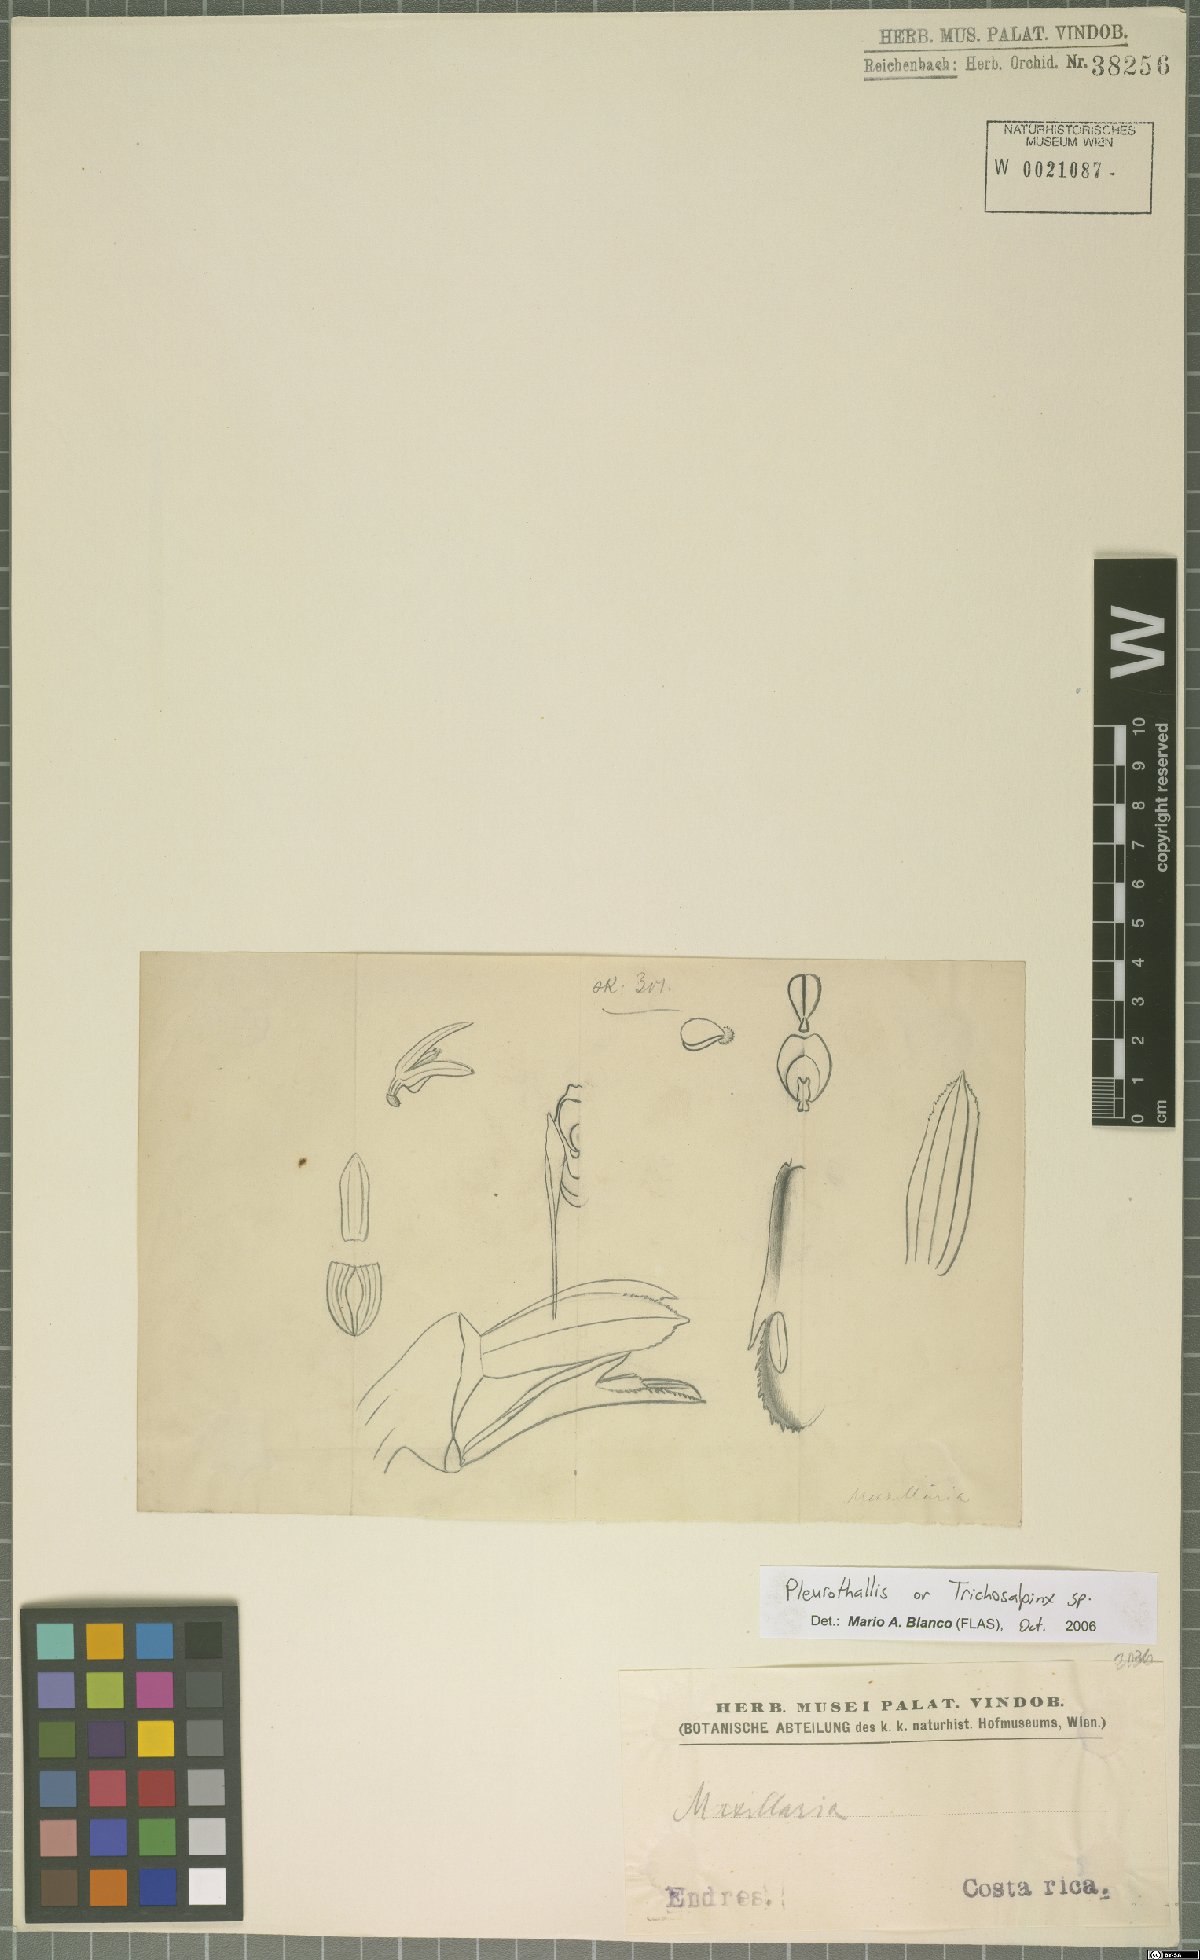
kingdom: Plantae
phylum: Tracheophyta
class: Liliopsida
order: Asparagales
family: Orchidaceae
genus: Pleurothallis
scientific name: Pleurothallis
